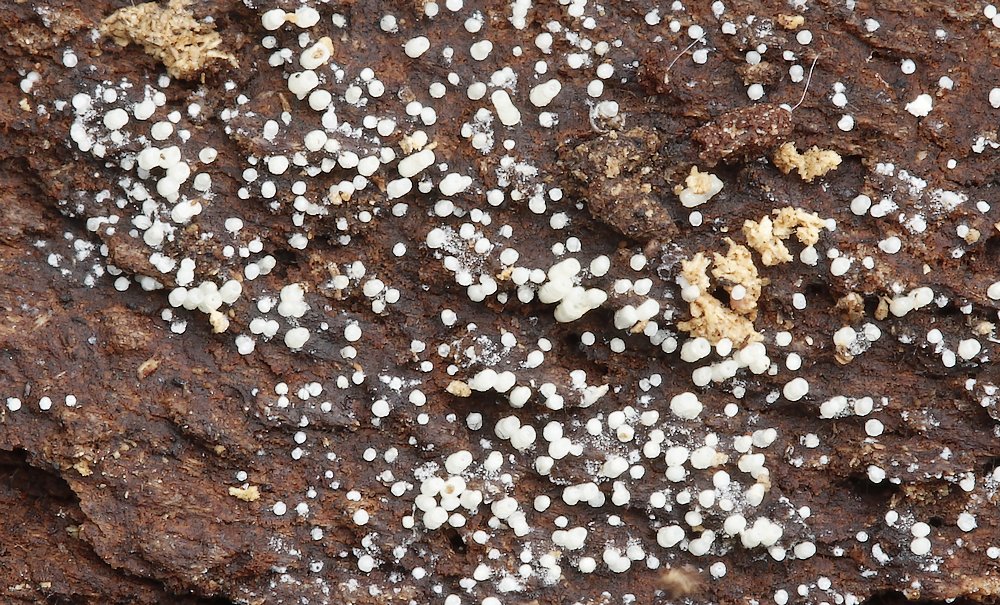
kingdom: Fungi
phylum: Basidiomycota
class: Agaricomycetes
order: Agaricales
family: Marasmiaceae
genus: Henningsomyces
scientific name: Henningsomyces candidus
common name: glat hængerør
